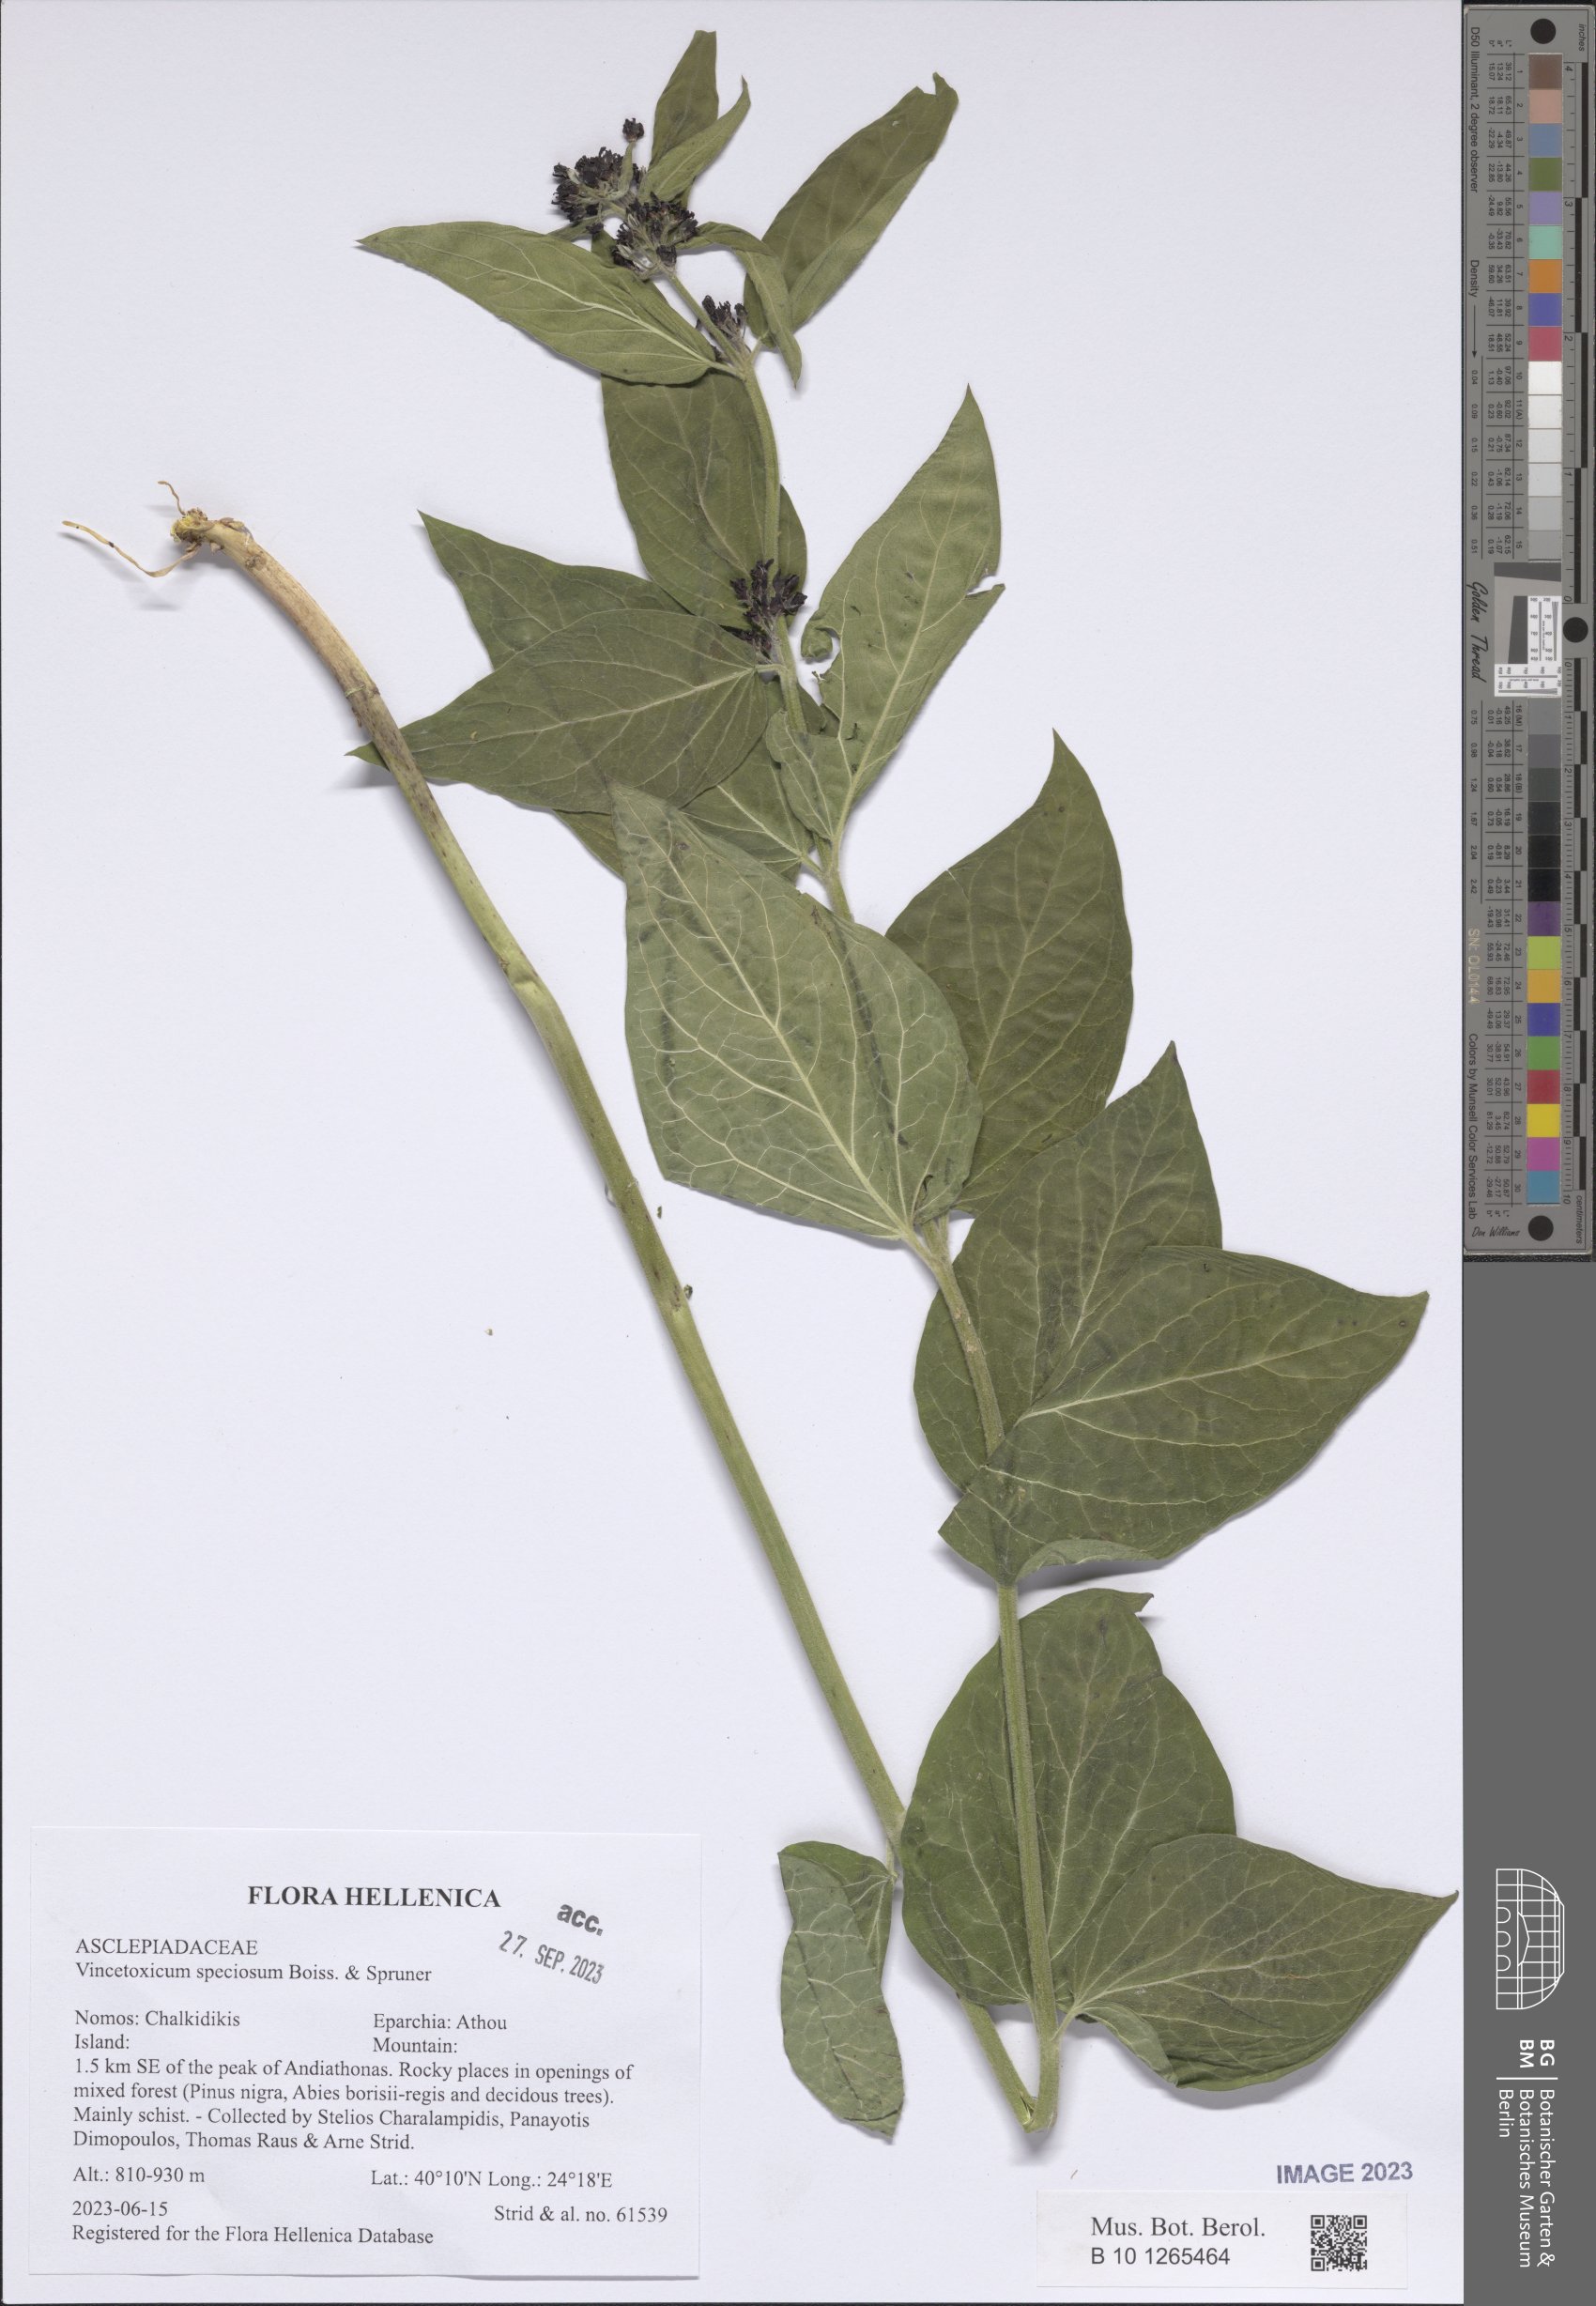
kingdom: Plantae
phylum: Tracheophyta
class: Magnoliopsida
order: Gentianales
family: Apocynaceae
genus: Vincetoxicum
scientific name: Vincetoxicum speciosum
